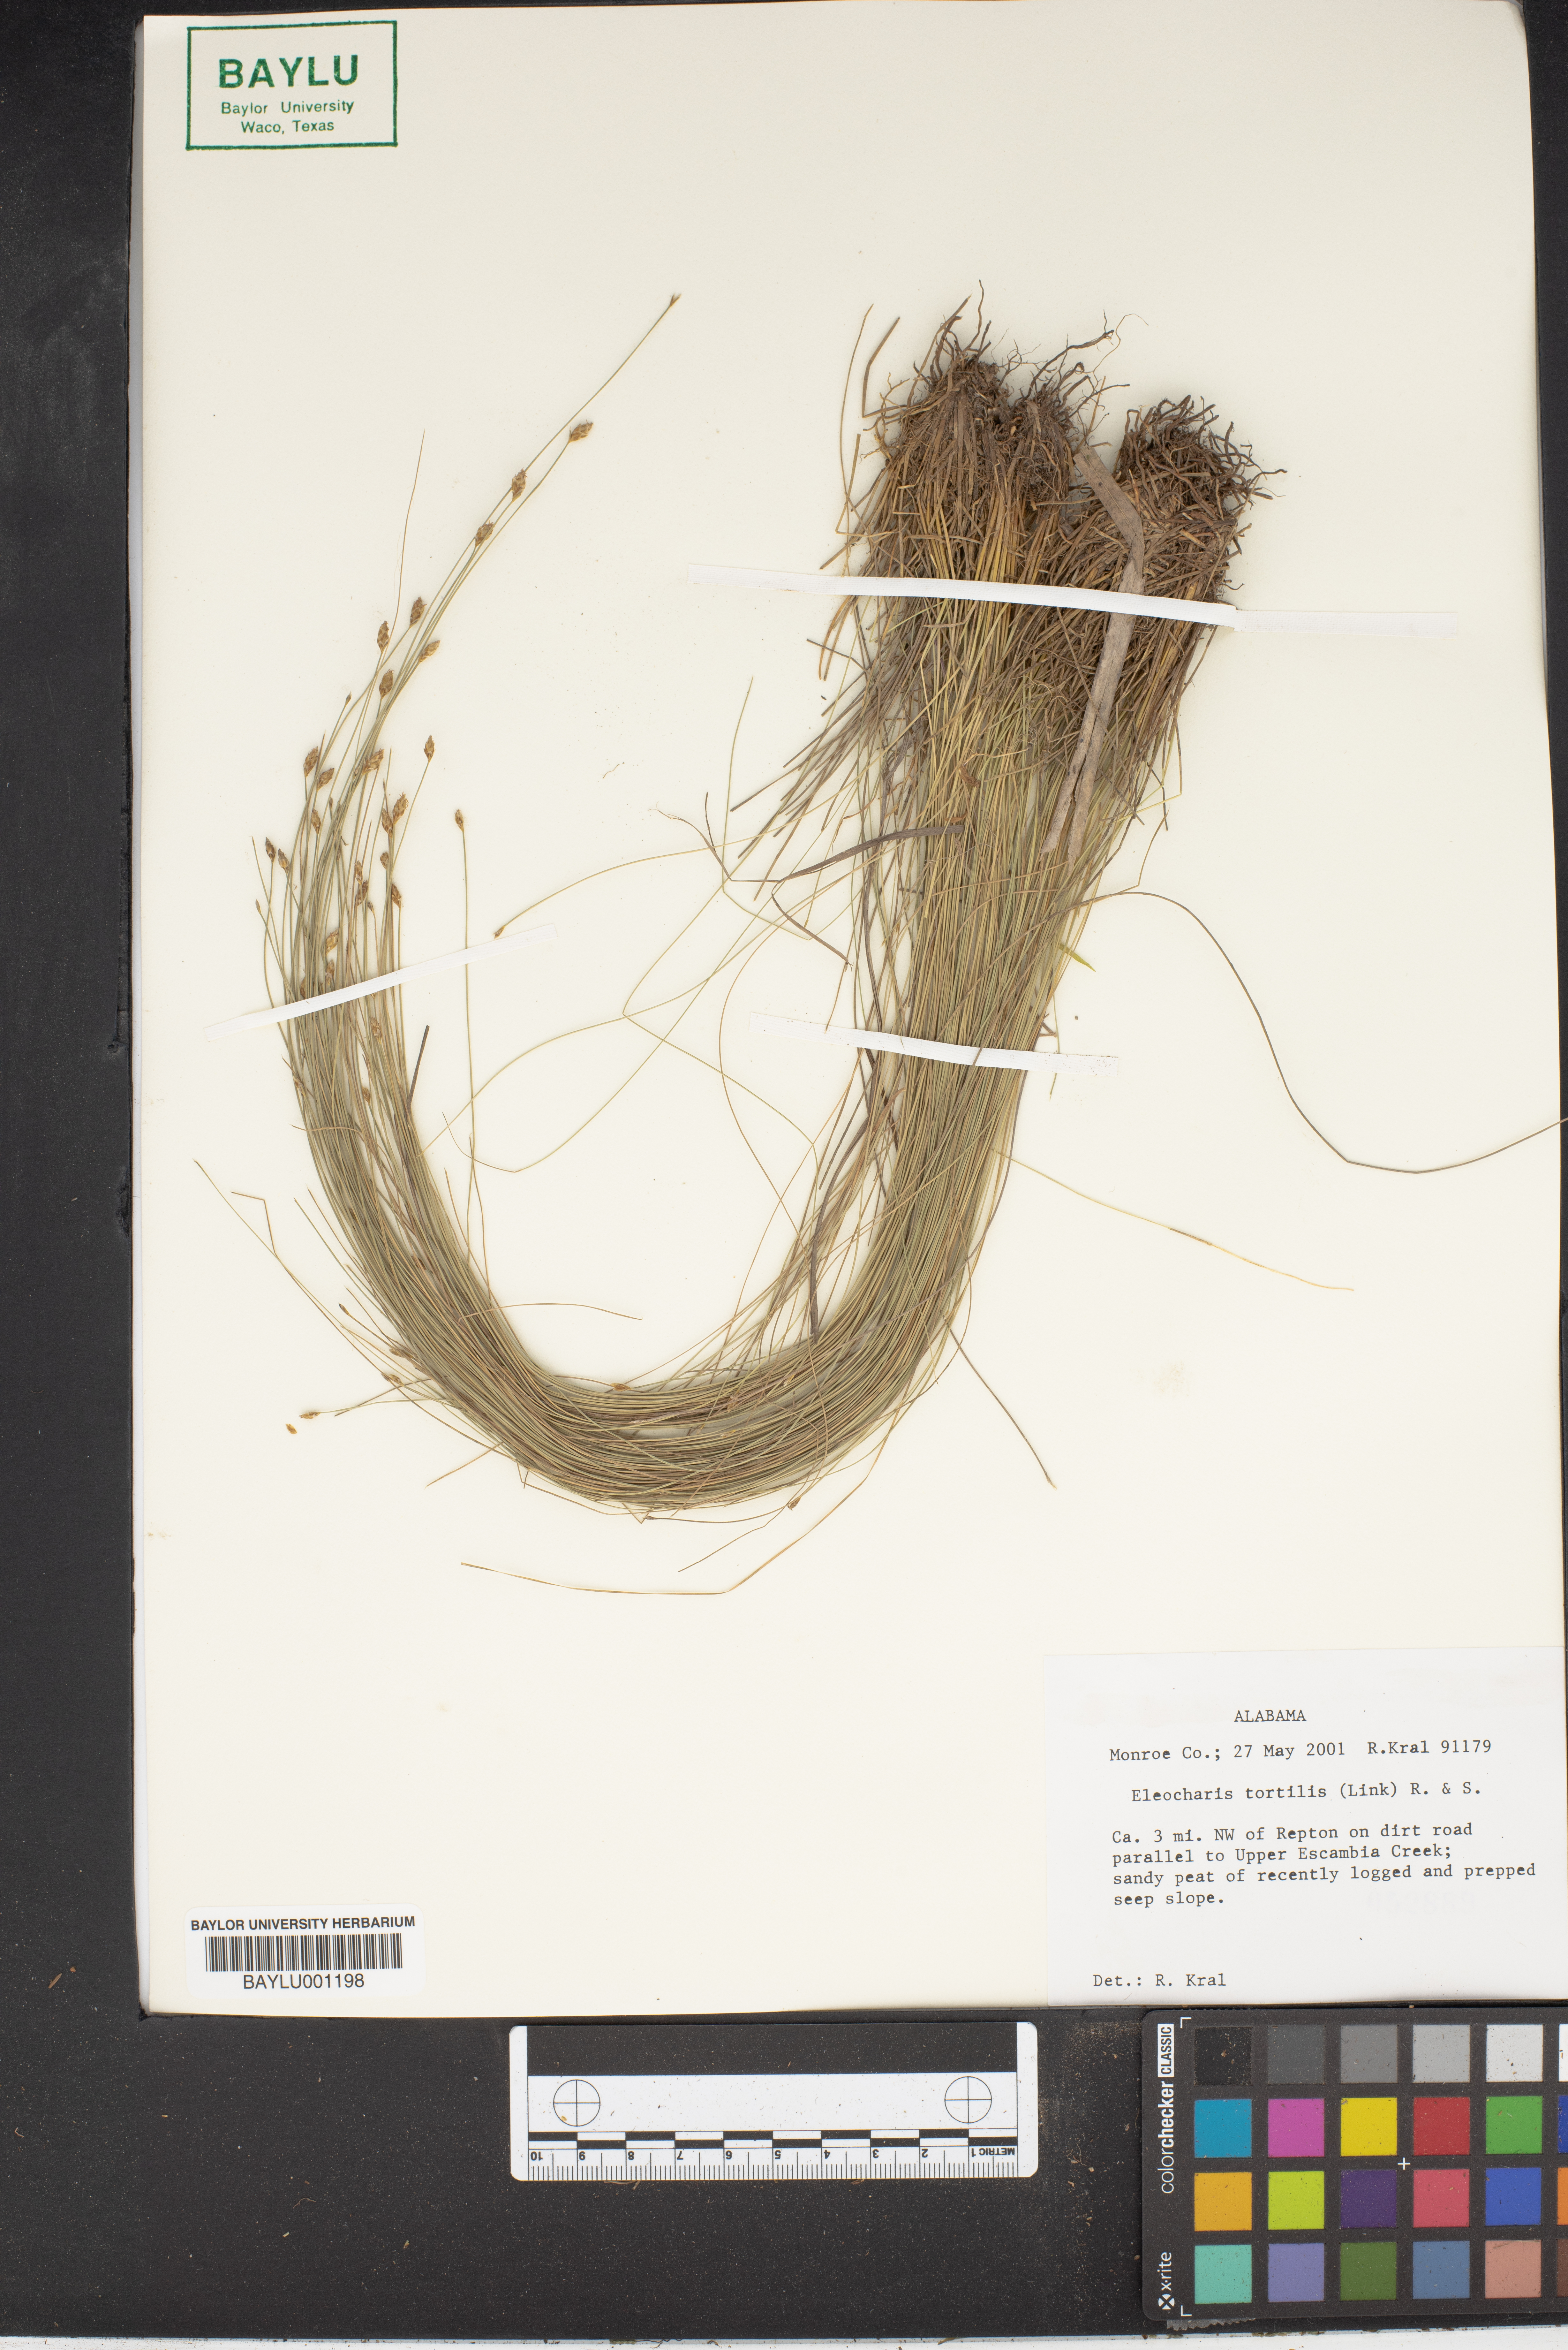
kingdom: Plantae
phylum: Tracheophyta
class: Liliopsida
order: Poales
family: Cyperaceae
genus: Eleocharis
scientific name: Eleocharis tortilis
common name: Twisted spike sedge
